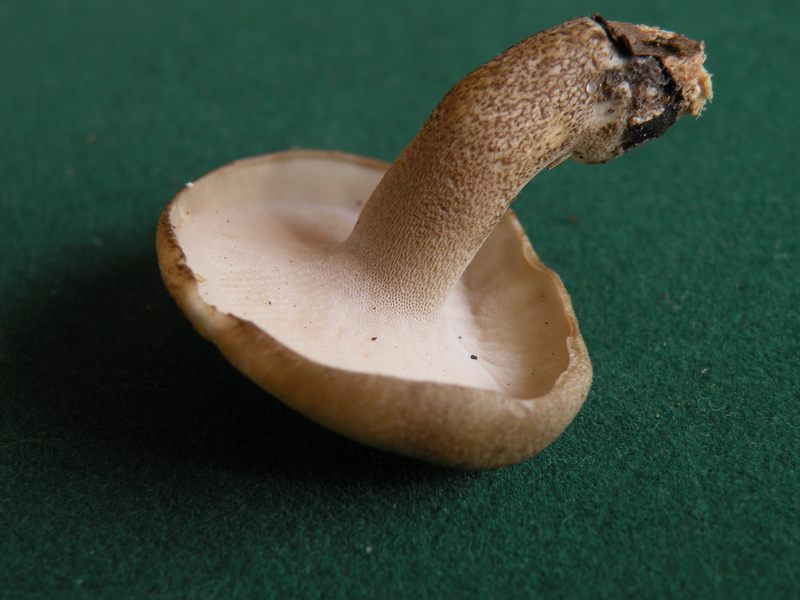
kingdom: Fungi
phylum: Basidiomycota
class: Agaricomycetes
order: Polyporales
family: Polyporaceae
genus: Lentinus
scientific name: Lentinus substrictus
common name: forårs-stilkporesvamp
